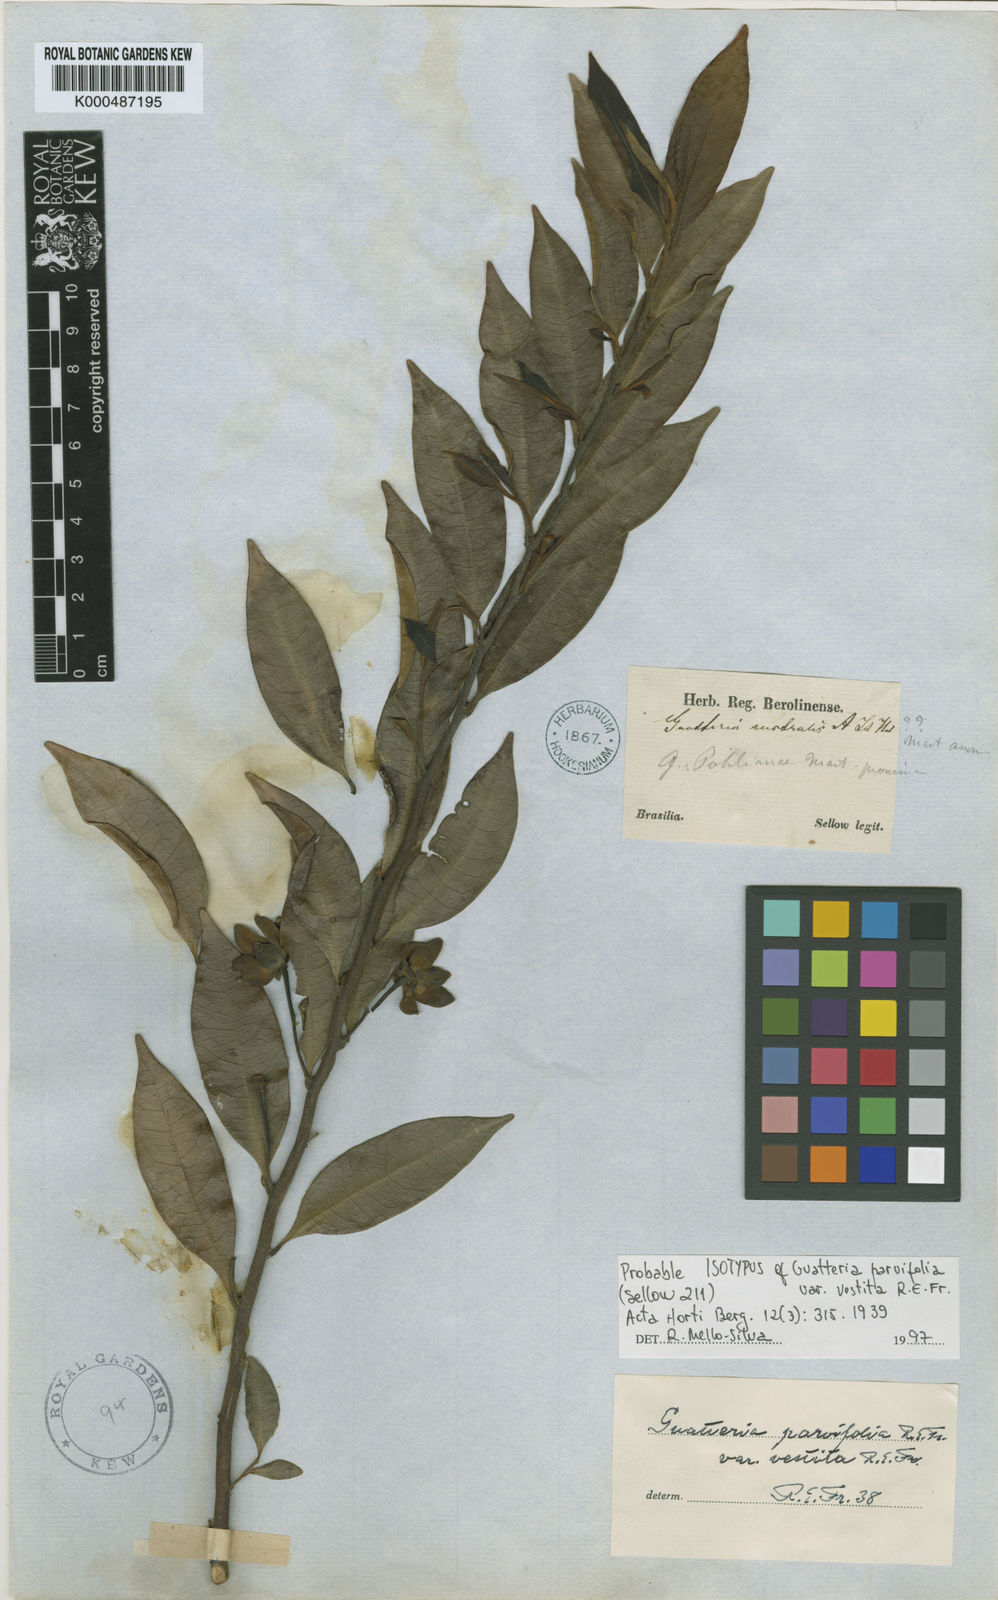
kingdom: Plantae
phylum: Tracheophyta
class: Magnoliopsida
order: Magnoliales
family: Annonaceae
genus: Guatteria
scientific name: Guatteria australis
